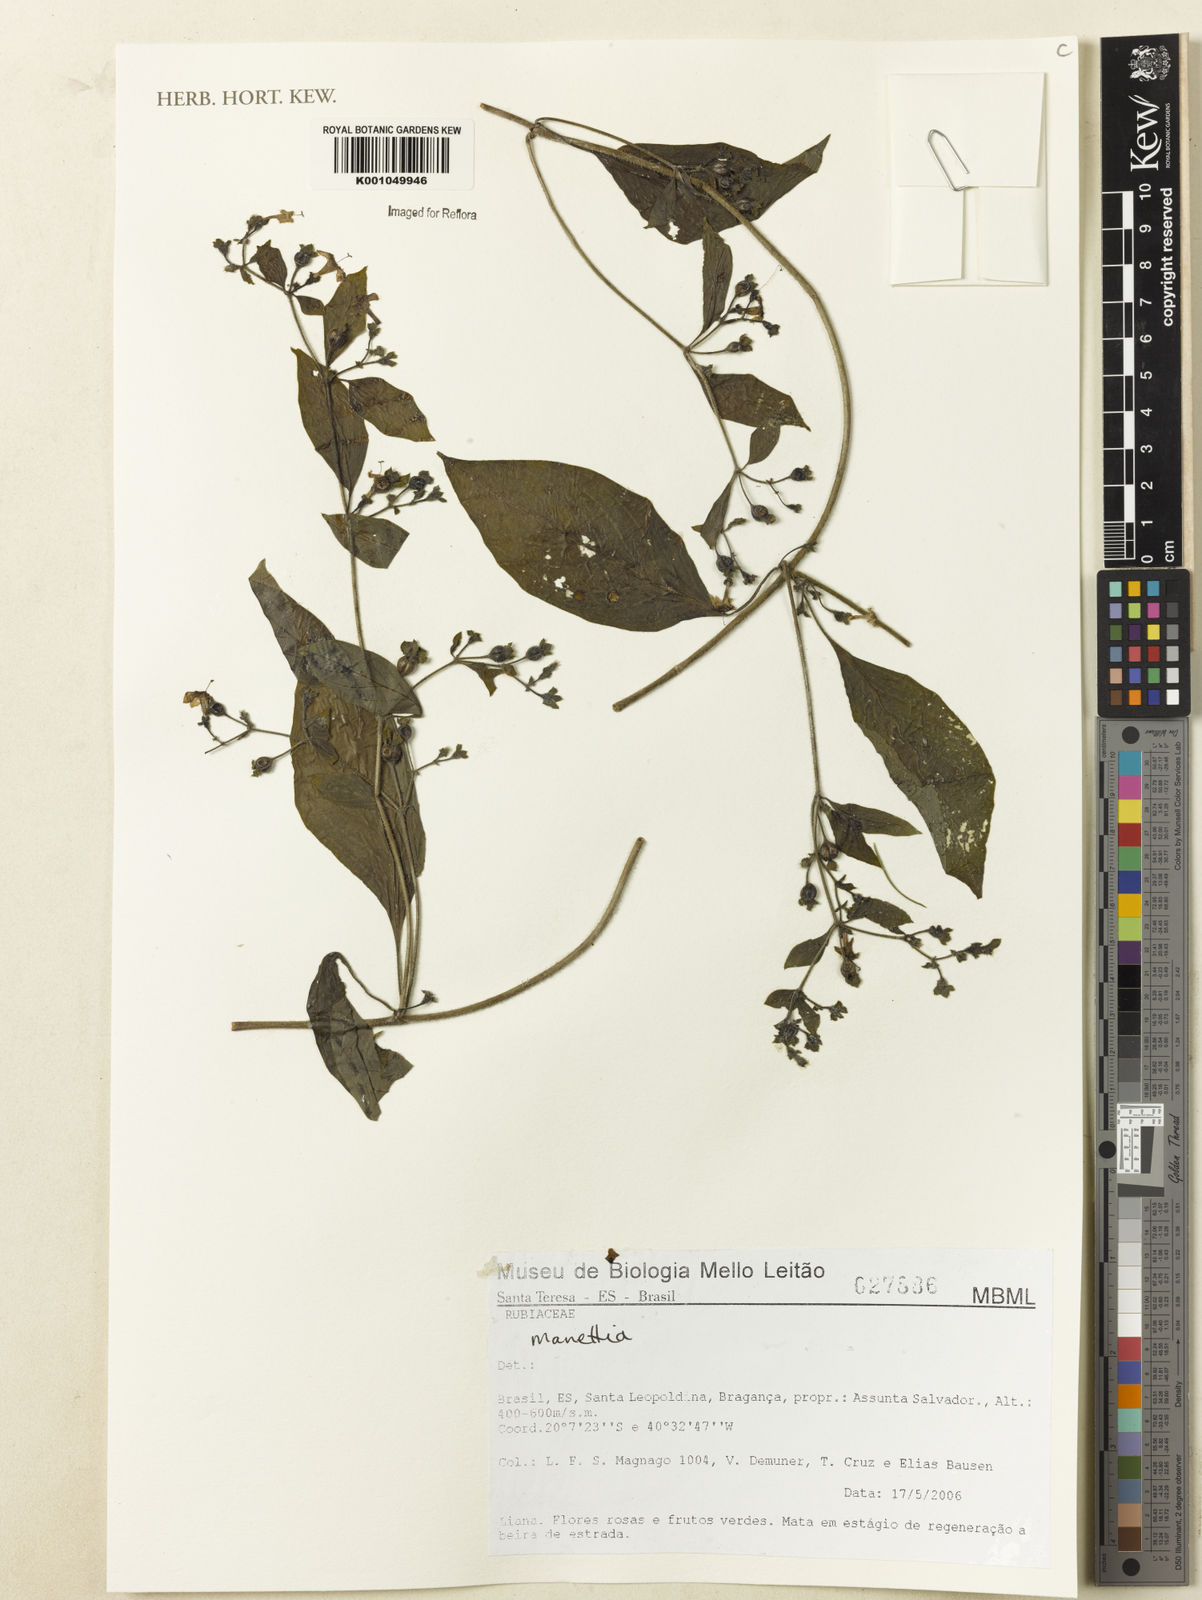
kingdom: Plantae
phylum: Tracheophyta
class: Magnoliopsida
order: Gentianales
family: Rubiaceae
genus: Manettia
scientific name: Manettia
